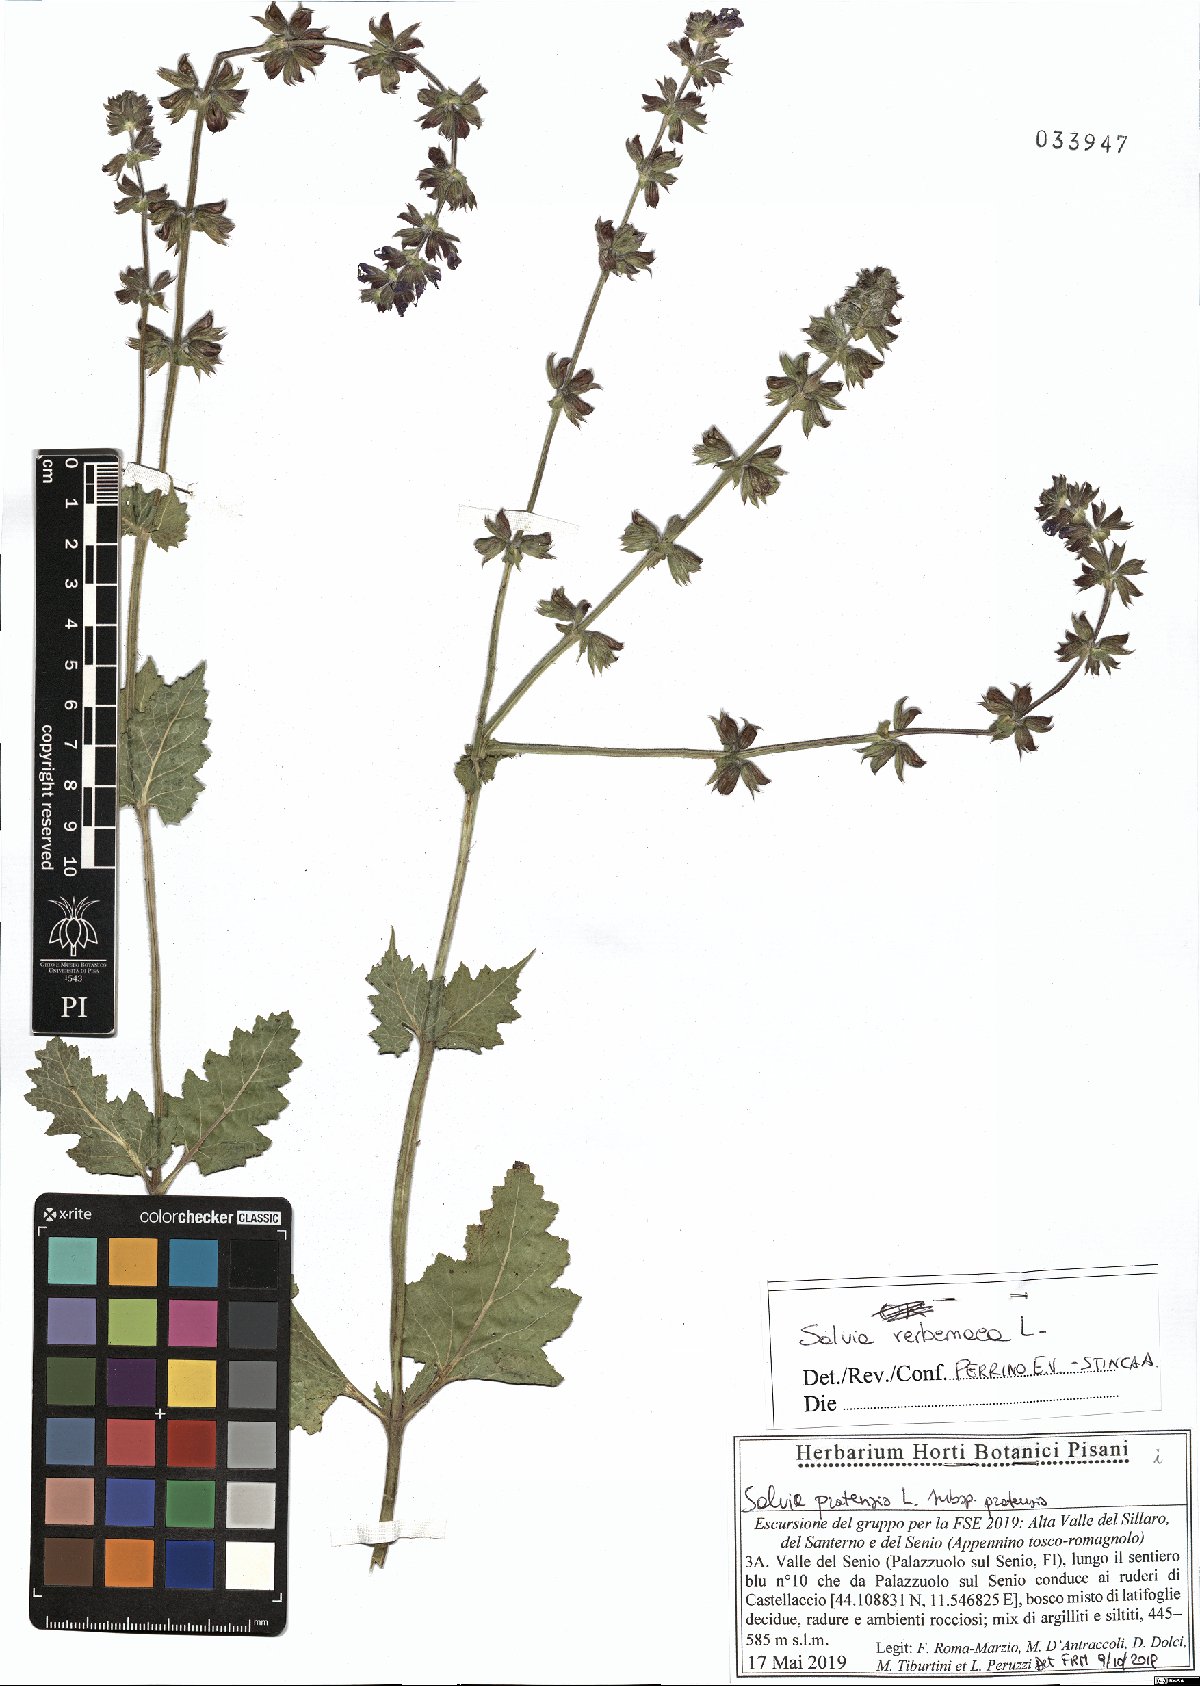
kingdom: Plantae
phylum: Tracheophyta
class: Magnoliopsida
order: Lamiales
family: Lamiaceae
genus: Salvia
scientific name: Salvia verbenaca
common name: Wild clary
